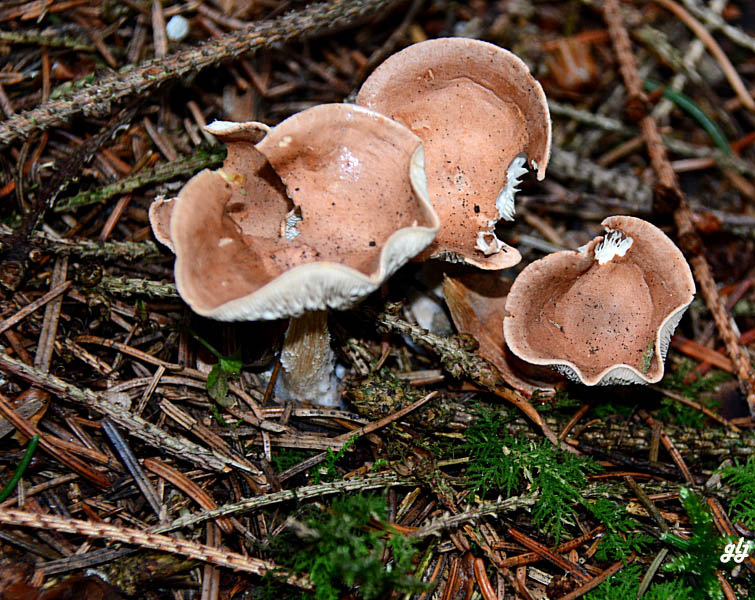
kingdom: Fungi
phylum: Basidiomycota
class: Agaricomycetes
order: Agaricales
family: Tricholomataceae
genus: Infundibulicybe
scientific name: Infundibulicybe gibba
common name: almindelig tragthat
